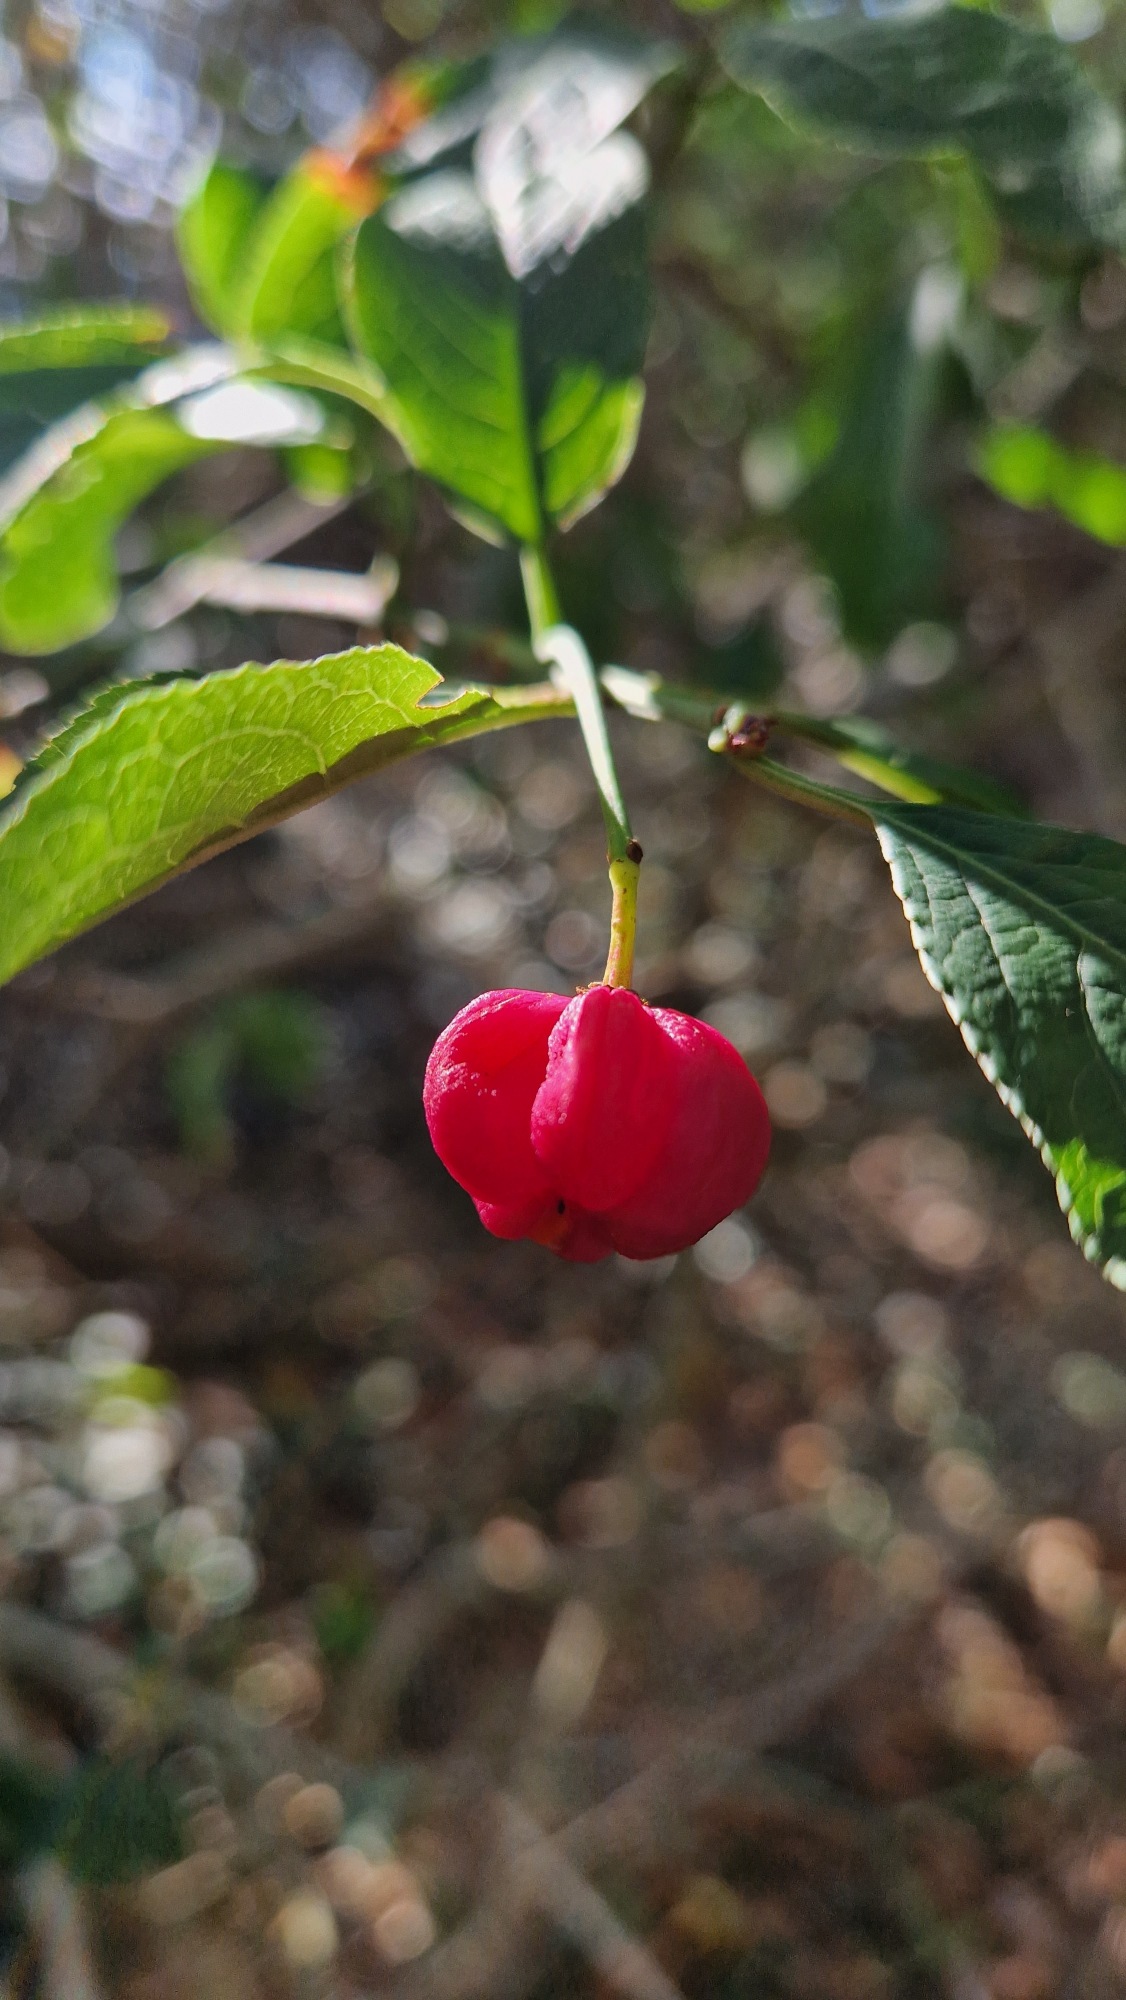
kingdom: Plantae
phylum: Tracheophyta
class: Magnoliopsida
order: Celastrales
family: Celastraceae
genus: Euonymus
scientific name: Euonymus europaeus
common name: Benved
